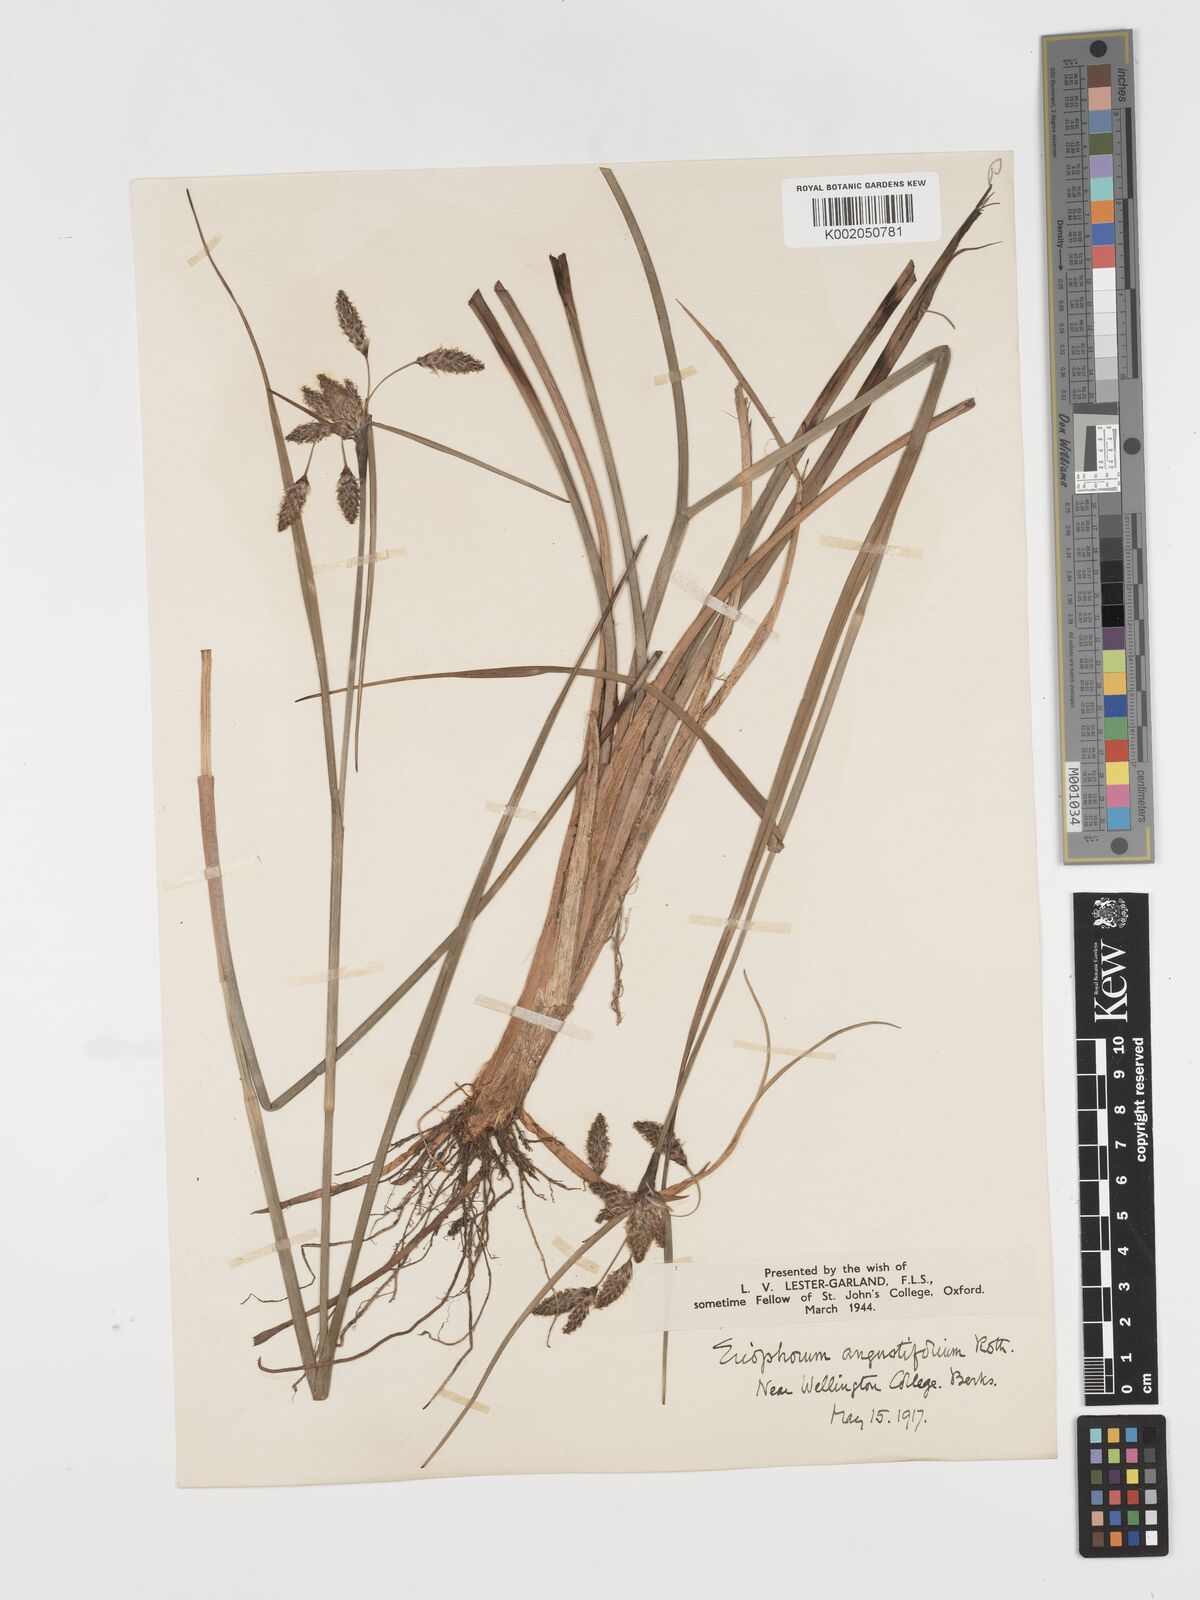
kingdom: Plantae
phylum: Tracheophyta
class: Liliopsida
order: Poales
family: Cyperaceae
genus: Eriophorum
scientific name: Eriophorum angustifolium
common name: Common cottongrass
